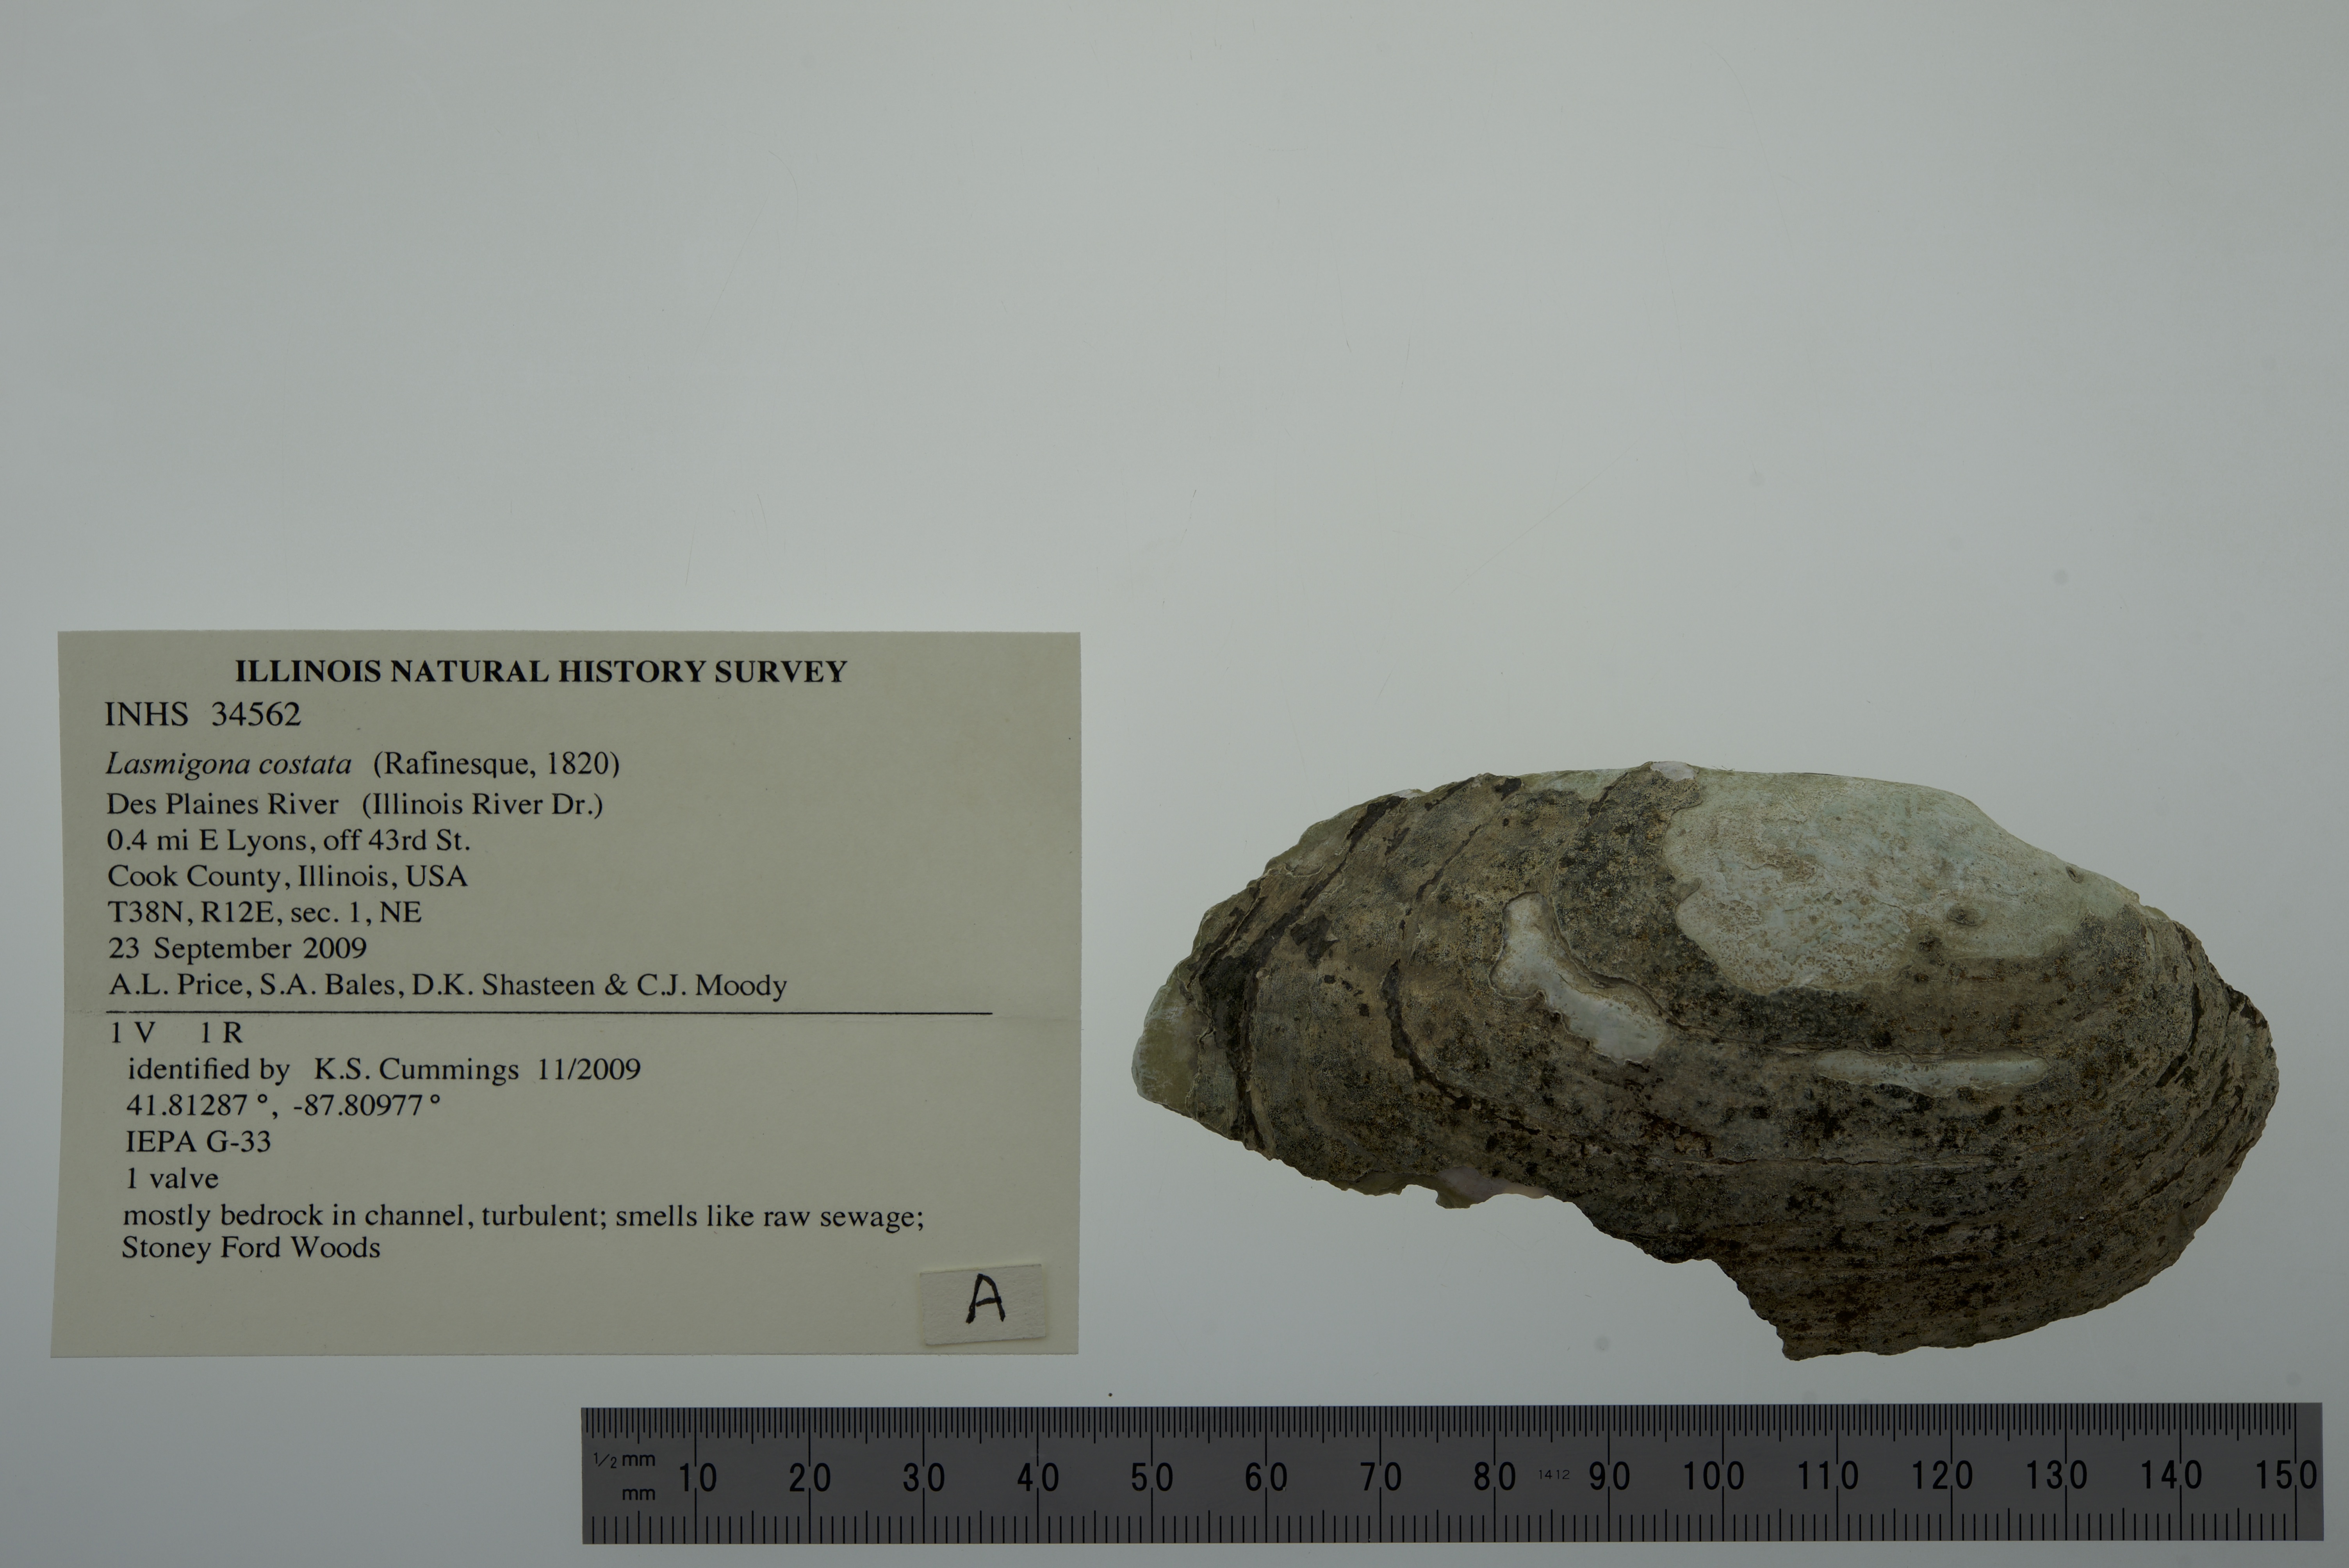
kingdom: Animalia
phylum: Mollusca
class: Bivalvia
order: Unionida
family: Unionidae
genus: Lasmigona
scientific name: Lasmigona costata
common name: Flutedshell
